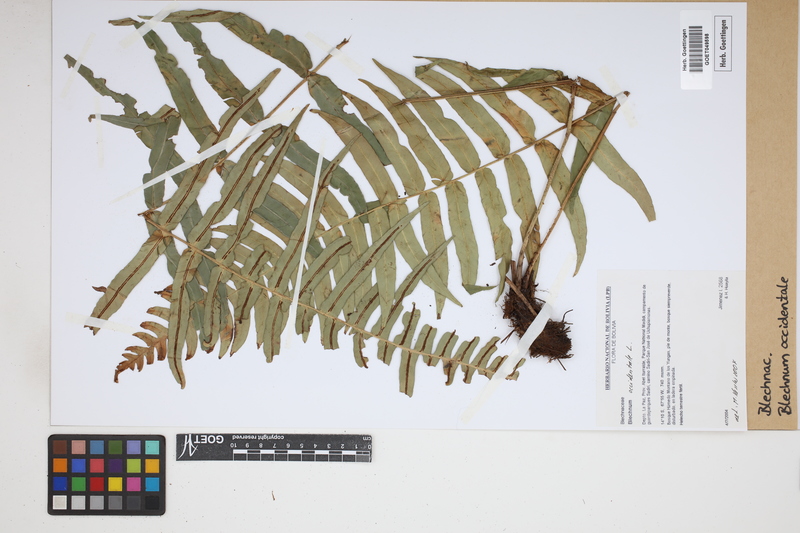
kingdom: Plantae
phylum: Tracheophyta
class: Polypodiopsida
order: Polypodiales
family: Blechnaceae
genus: Blechnum
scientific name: Blechnum occidentale
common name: Hammock fern
